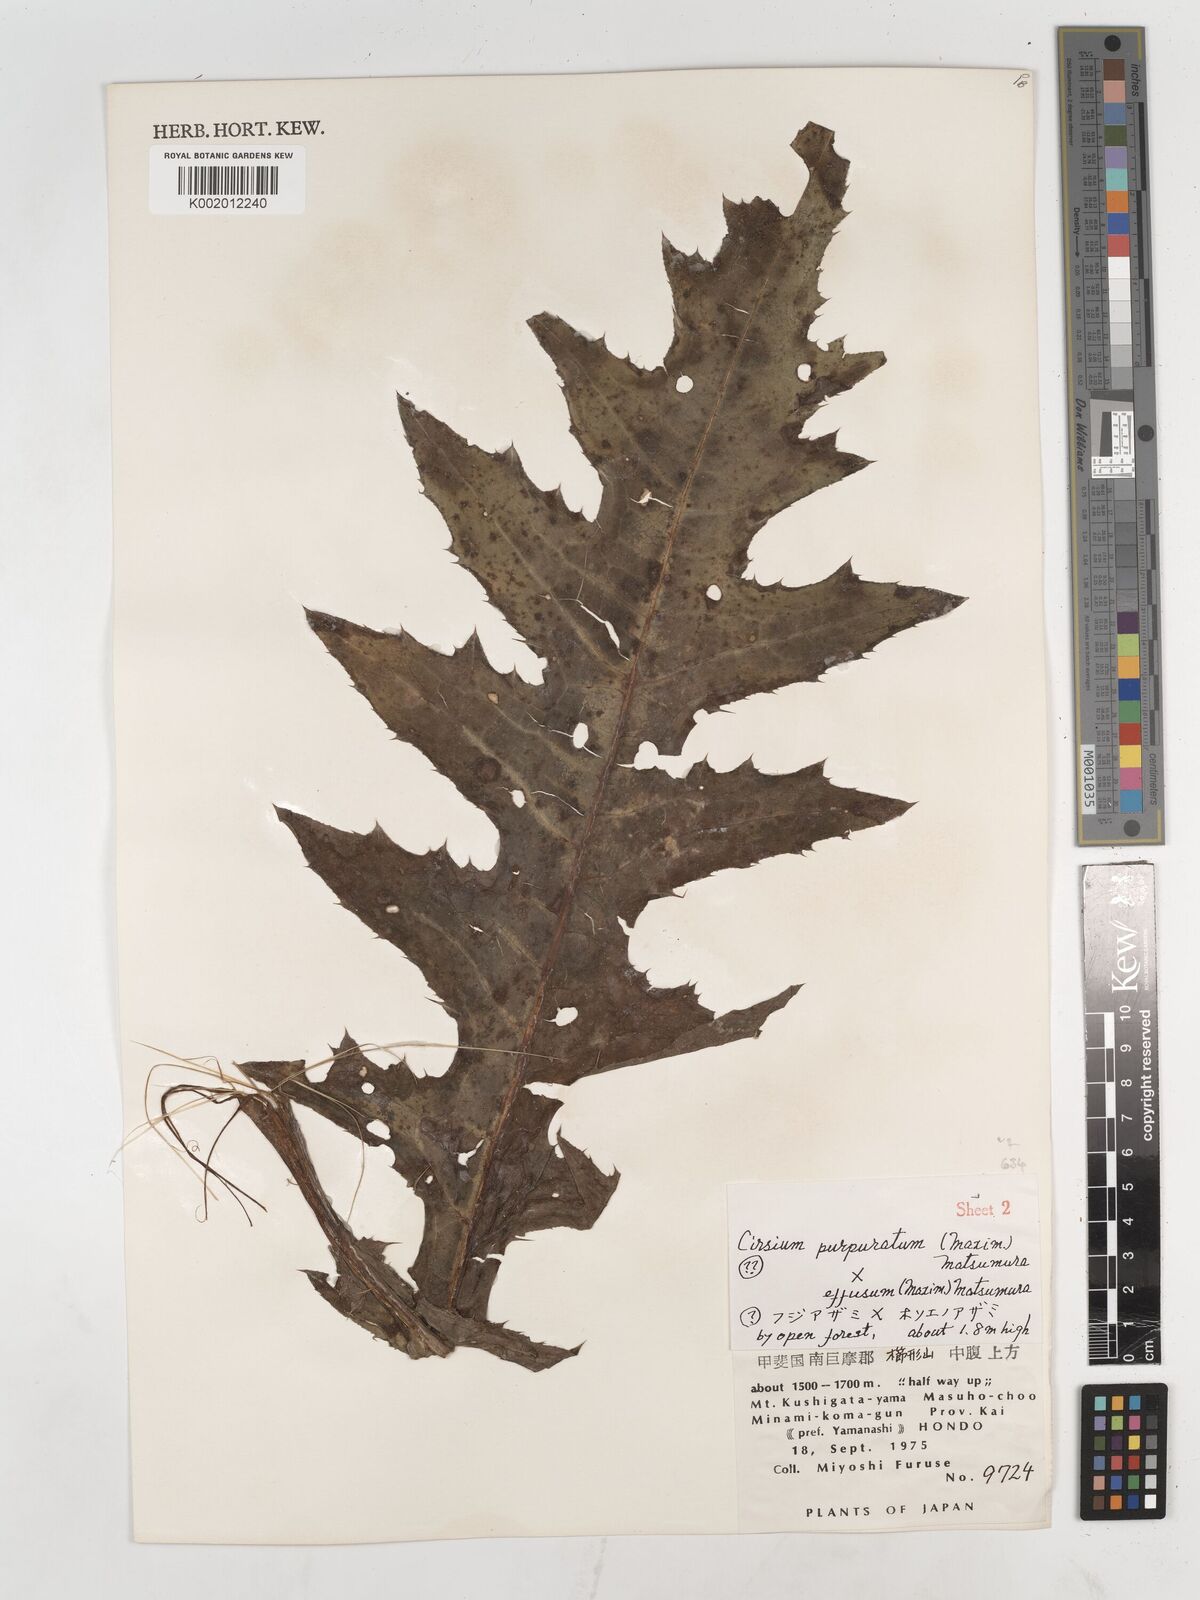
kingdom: Plantae
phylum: Tracheophyta
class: Magnoliopsida
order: Asterales
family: Asteraceae
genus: Cirsium
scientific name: Cirsium purpuratum
